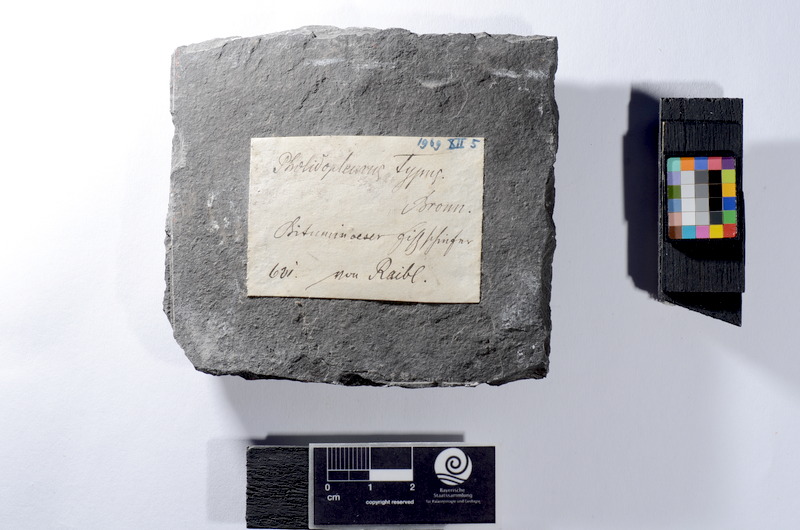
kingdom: Animalia
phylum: Chordata
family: Pholidopleuridae
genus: Pholidopleurus
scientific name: Pholidopleurus typus
